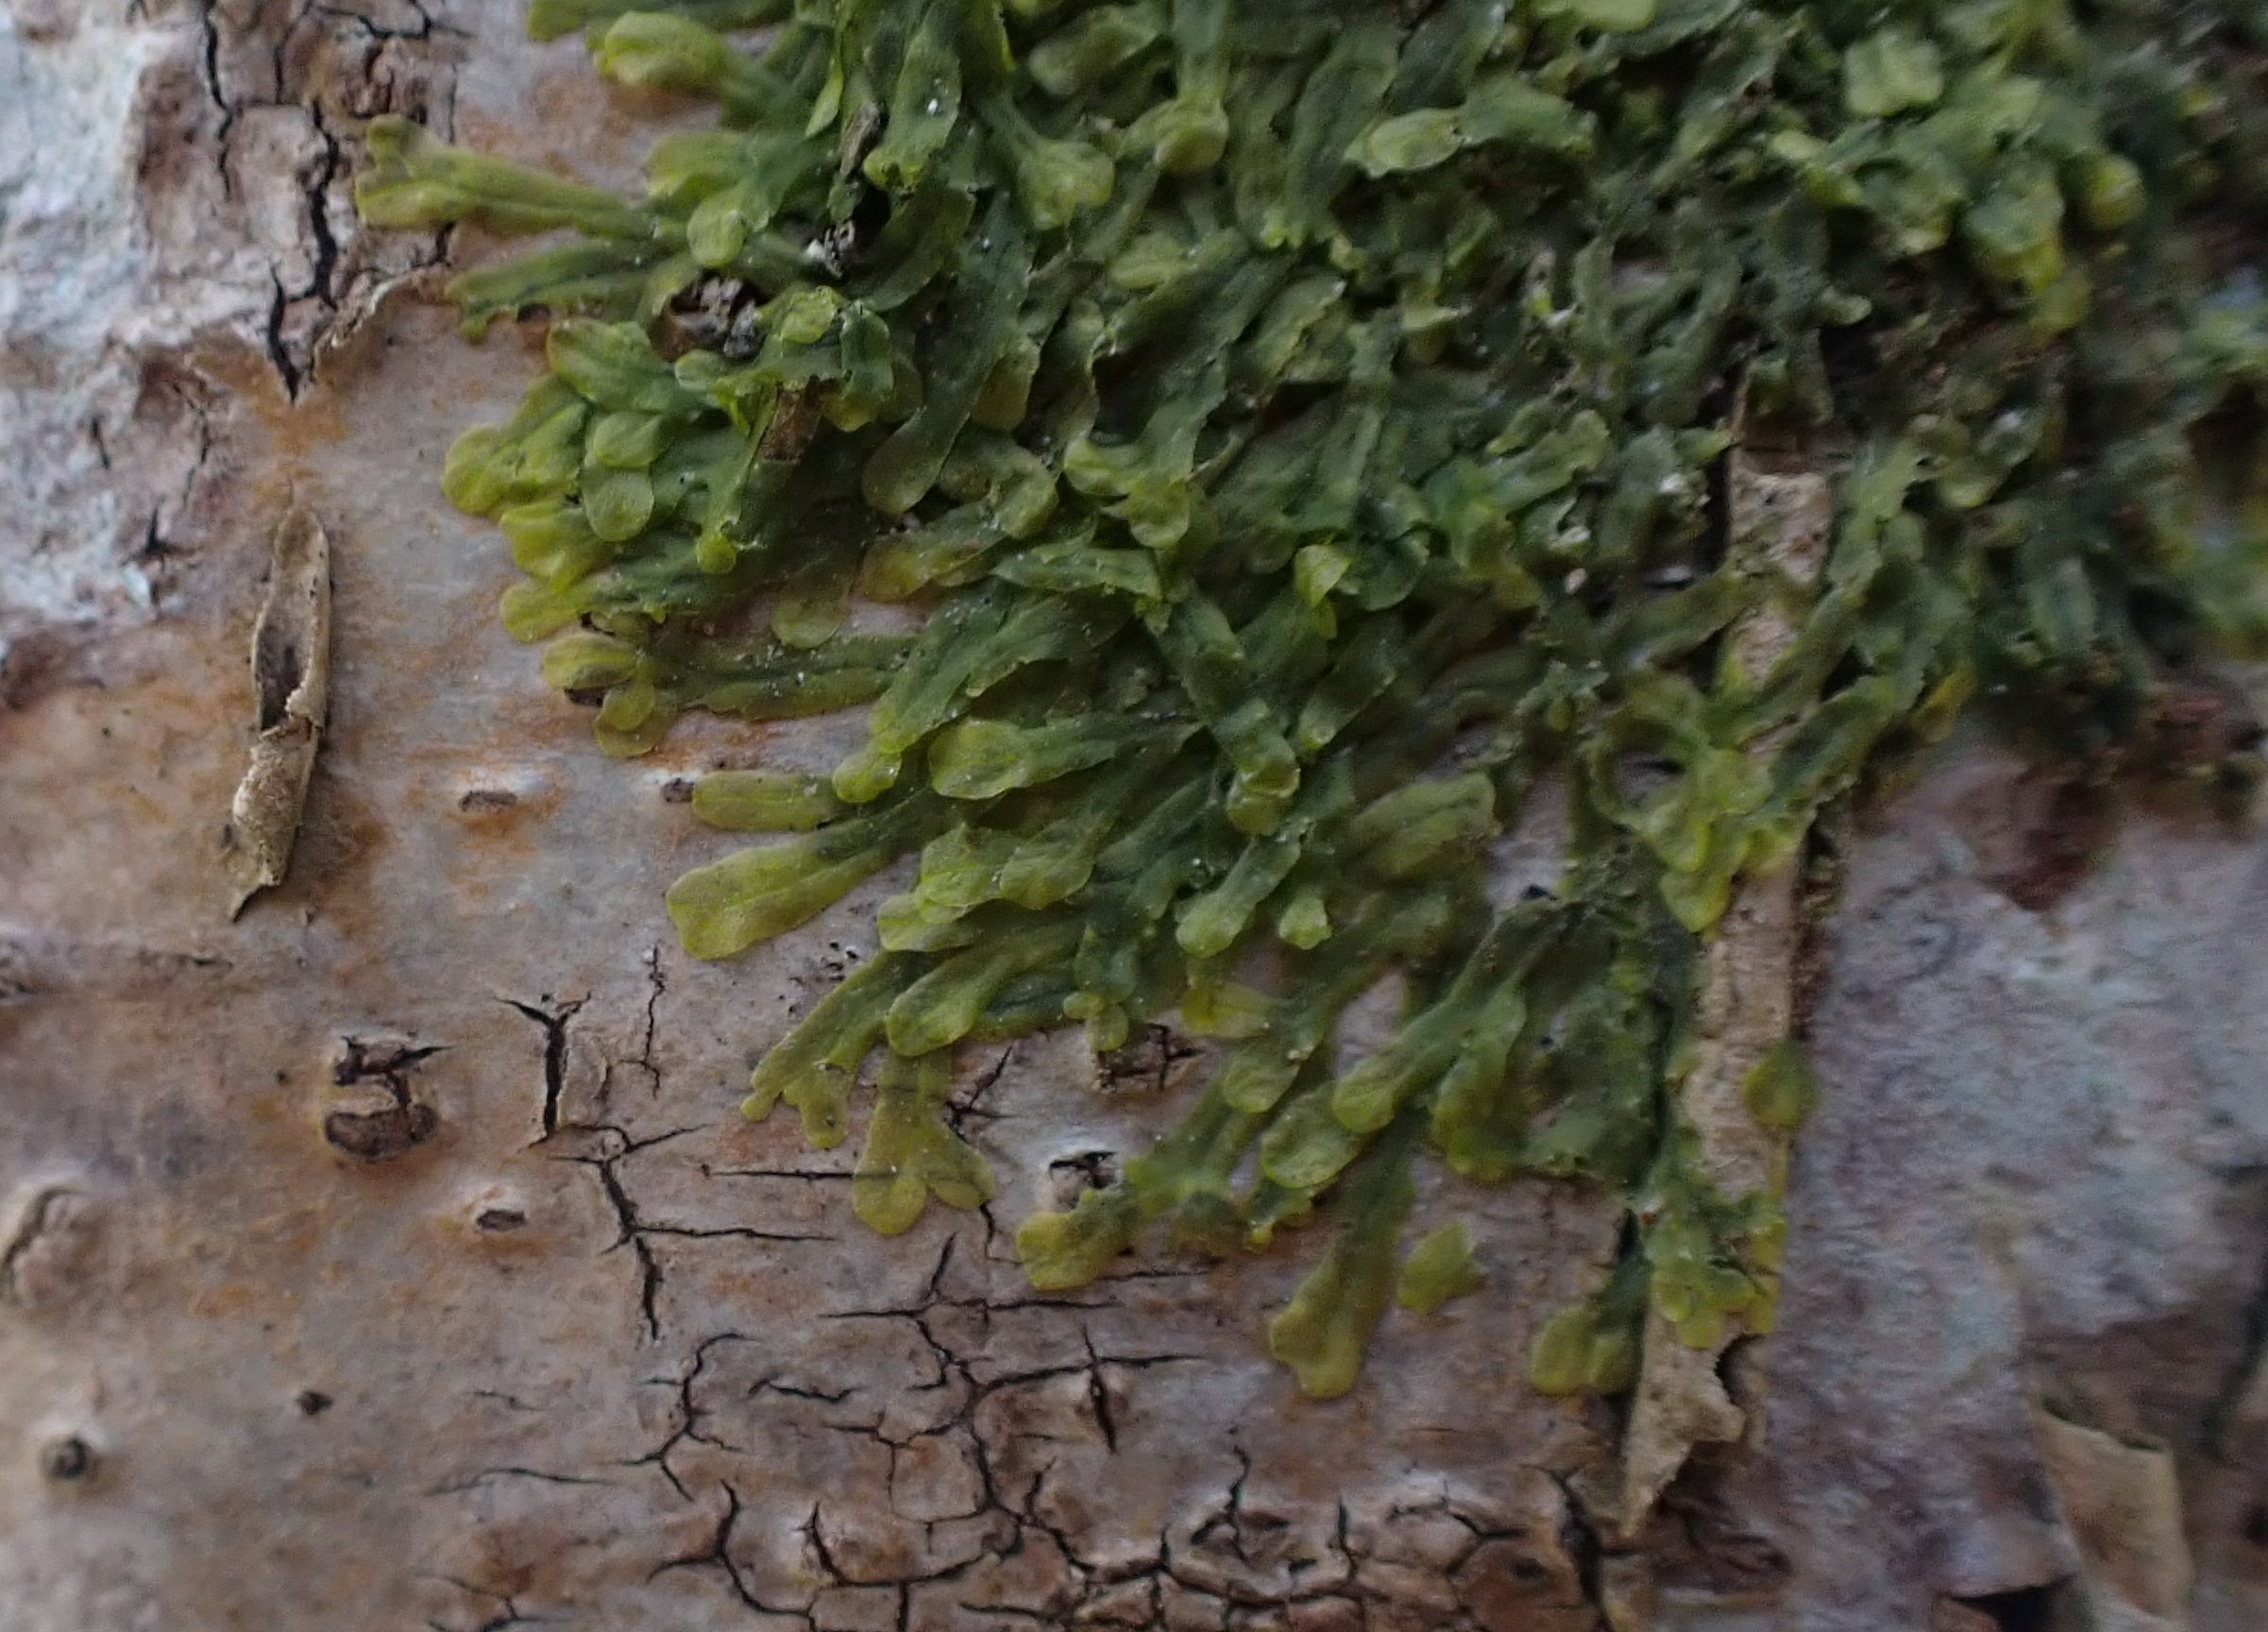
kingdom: Plantae
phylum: Marchantiophyta
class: Jungermanniopsida
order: Metzgeriales
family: Metzgeriaceae
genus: Metzgeria
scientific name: Metzgeria furcata
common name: Almindelig gaffelløv
